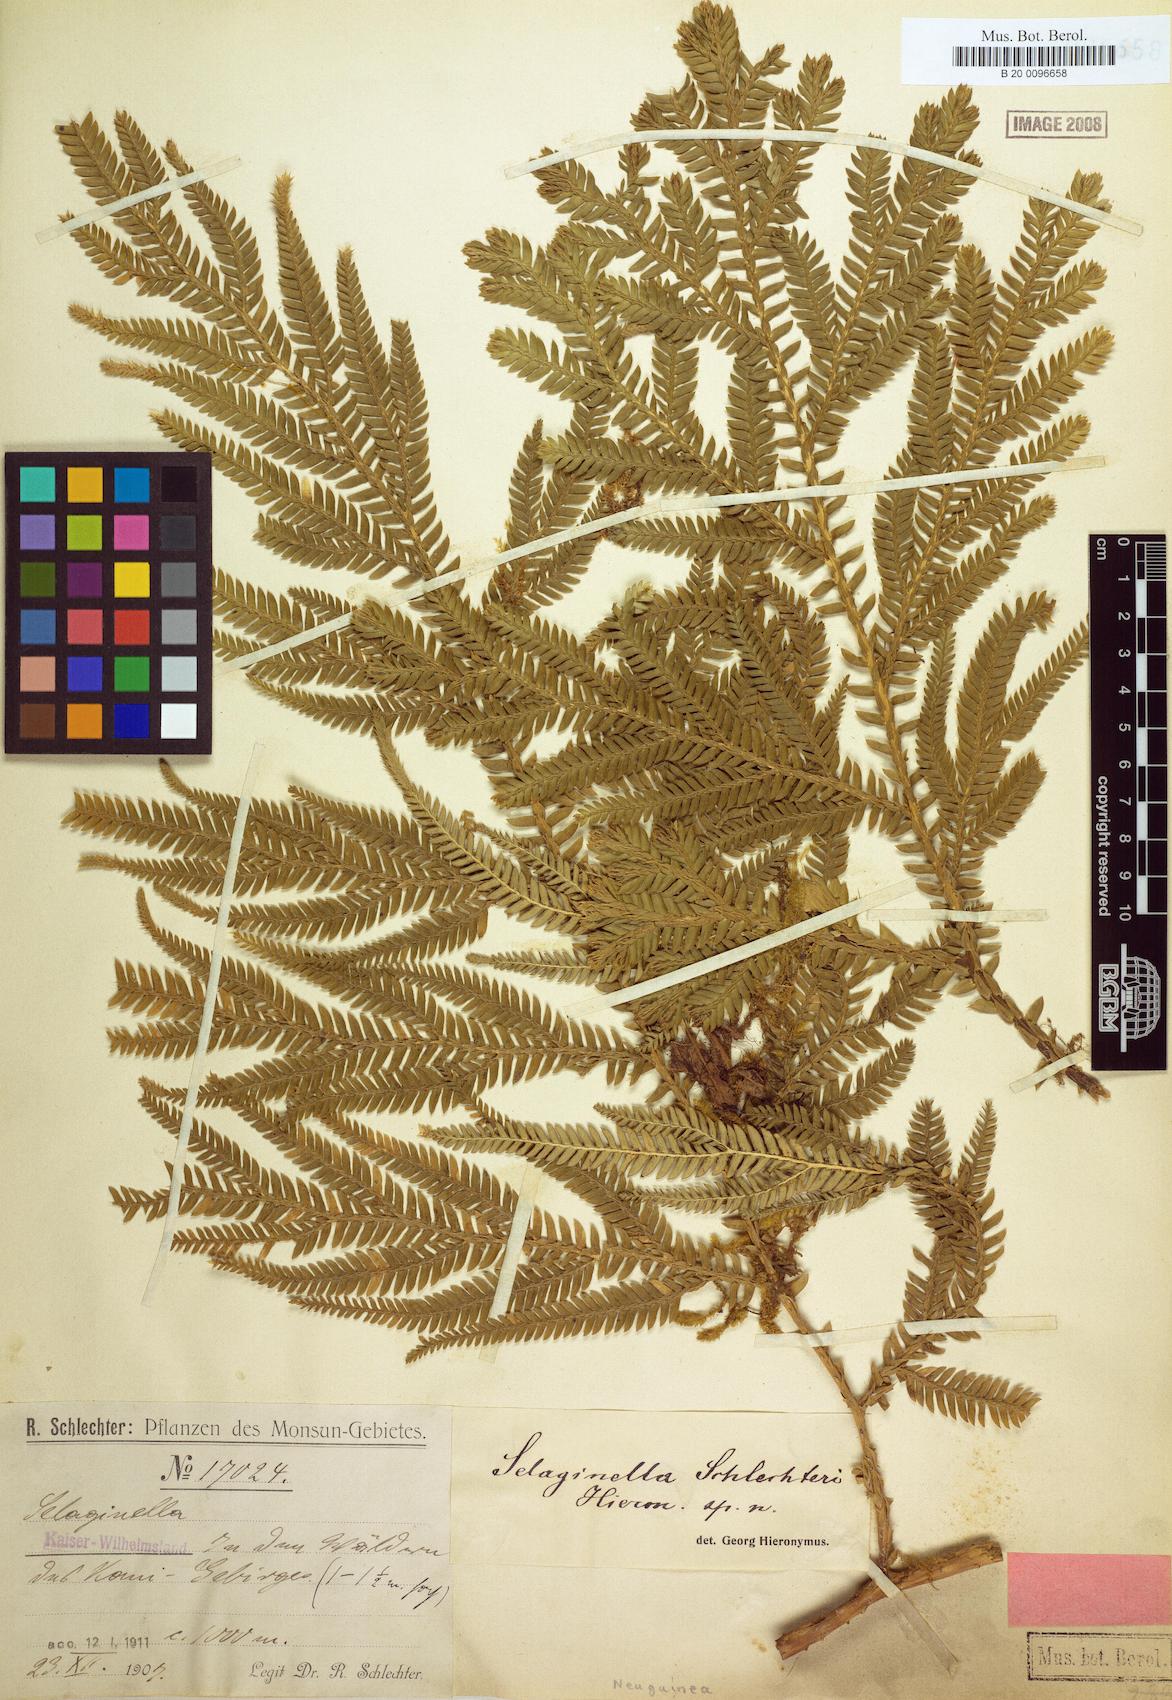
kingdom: Plantae
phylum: Tracheophyta
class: Lycopodiopsida
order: Selaginellales
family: Selaginellaceae
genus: Selaginella
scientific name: Selaginella schlechteri
